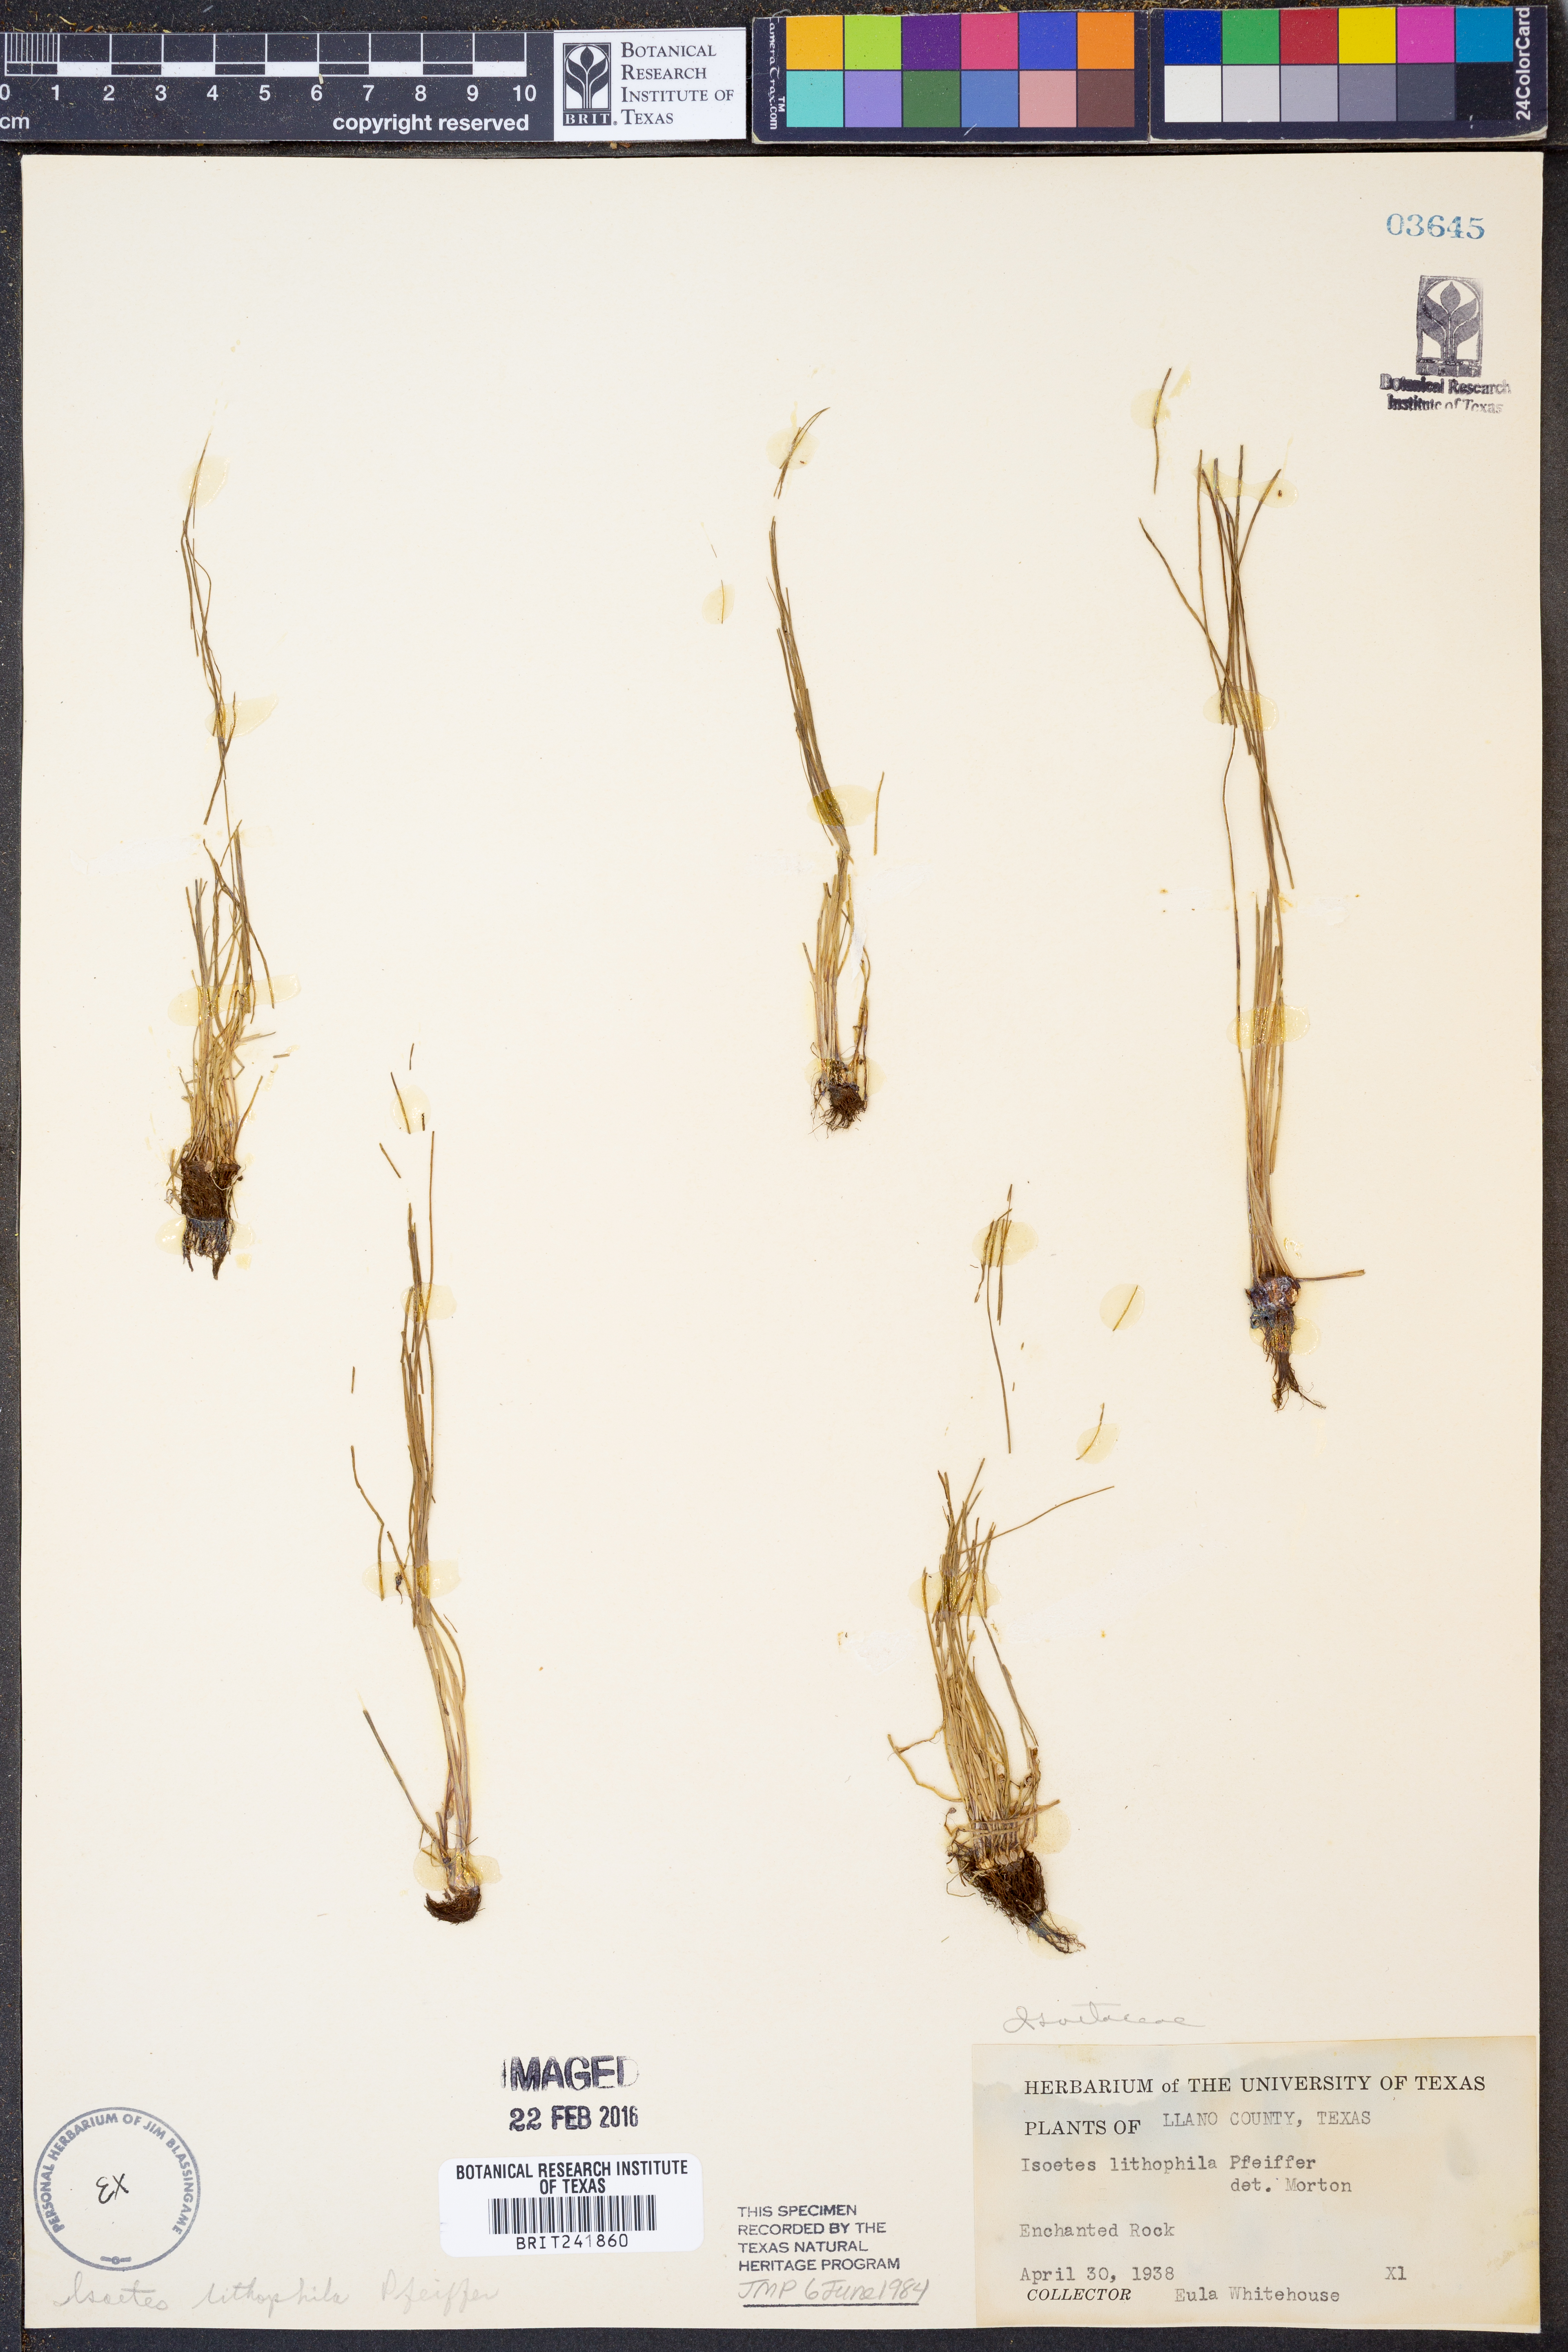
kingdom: Plantae
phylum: Tracheophyta
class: Lycopodiopsida
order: Isoetales
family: Isoetaceae
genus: Isoetes
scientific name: Isoetes lithophila
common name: Rock quillwort
